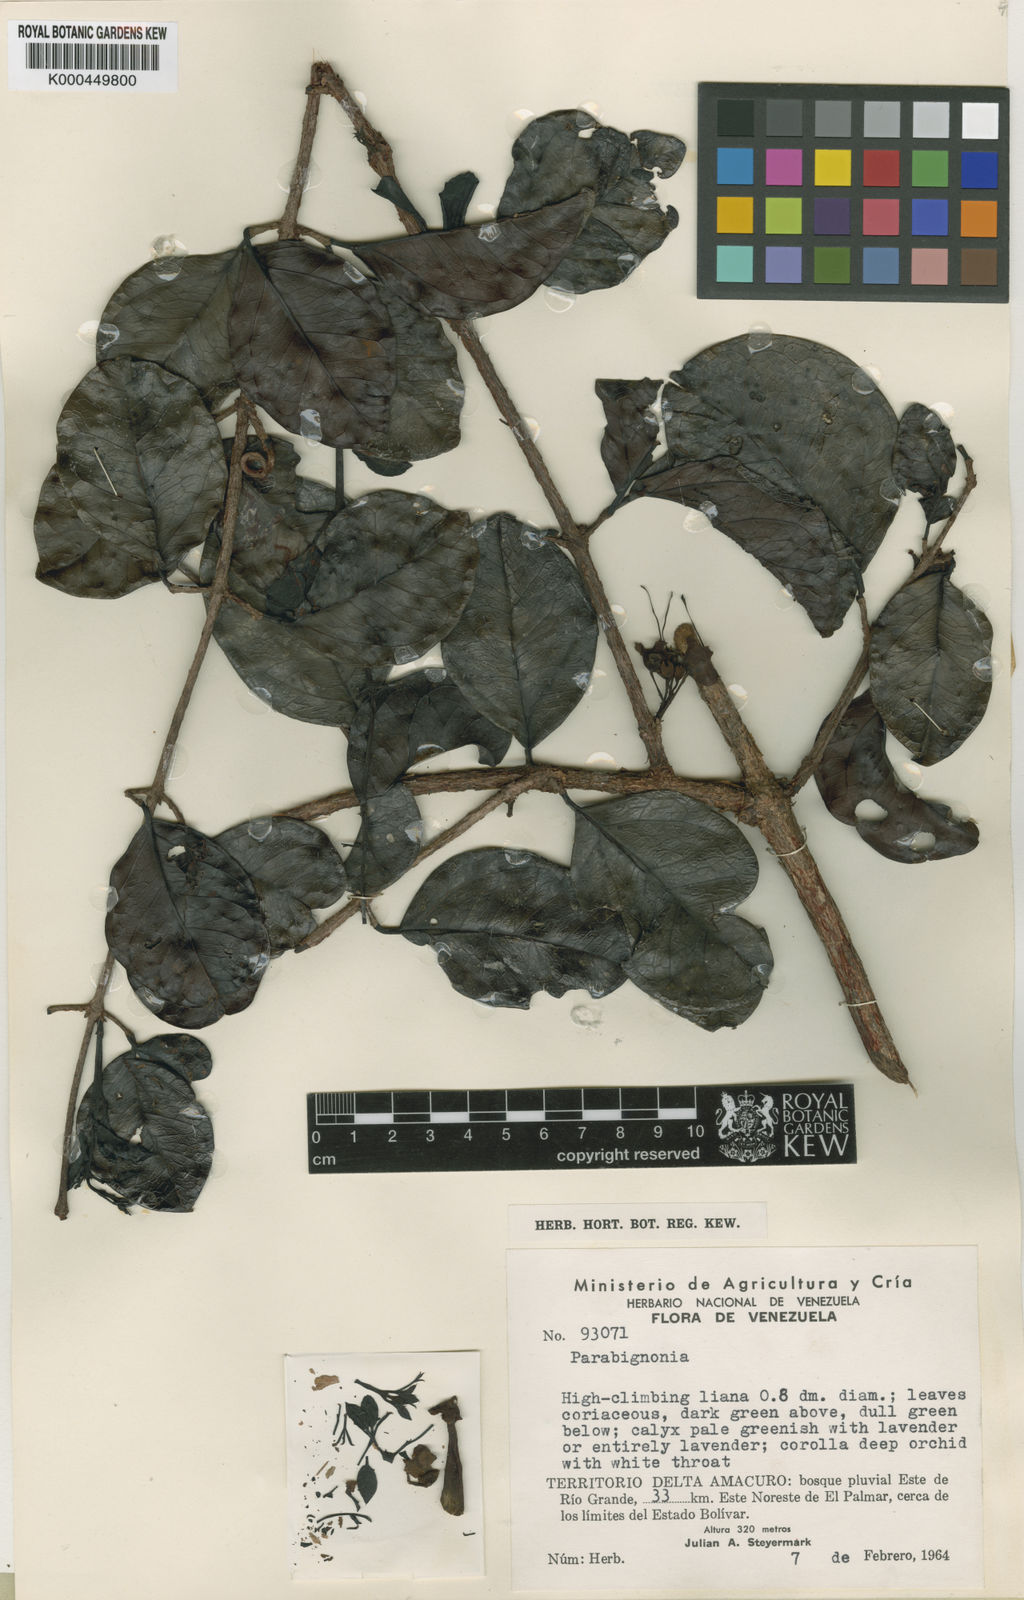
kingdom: Plantae
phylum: Tracheophyta
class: Magnoliopsida
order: Lamiales
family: Bignoniaceae
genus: Dolichandra
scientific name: Dolichandra steyermarkii
